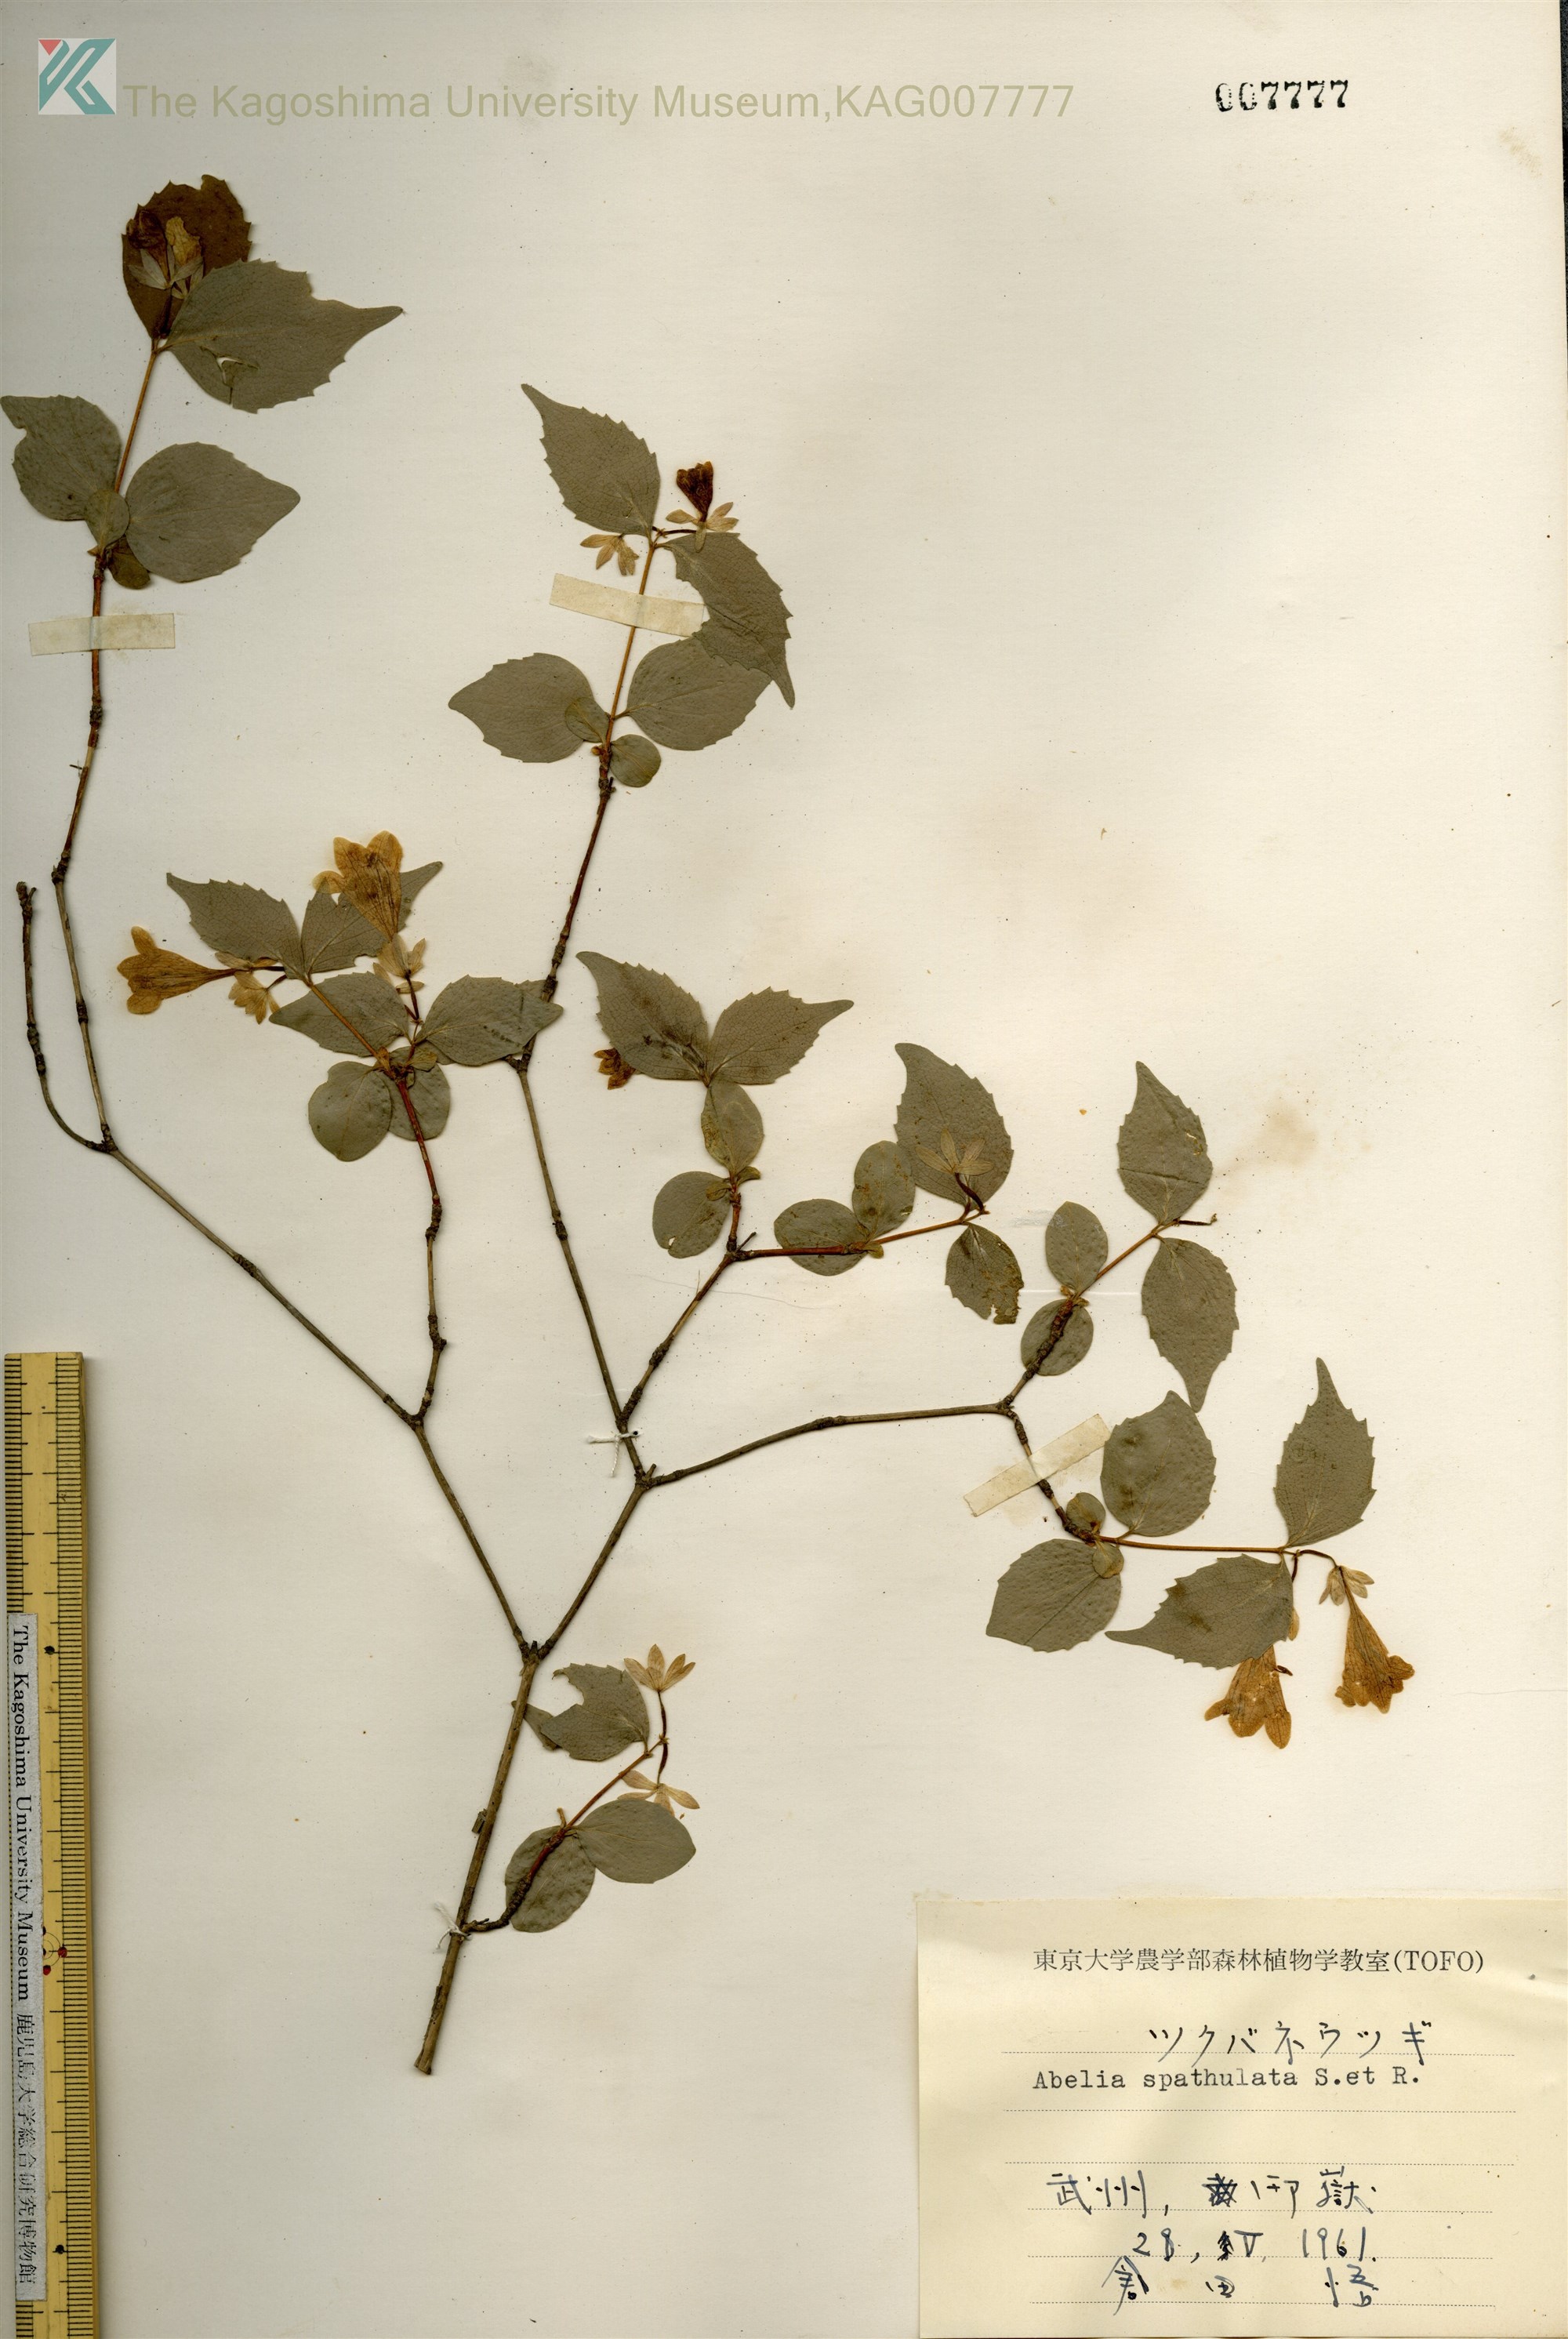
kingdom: Plantae
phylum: Tracheophyta
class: Magnoliopsida
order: Dipsacales
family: Caprifoliaceae
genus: Diabelia
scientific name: Diabelia spathulata
